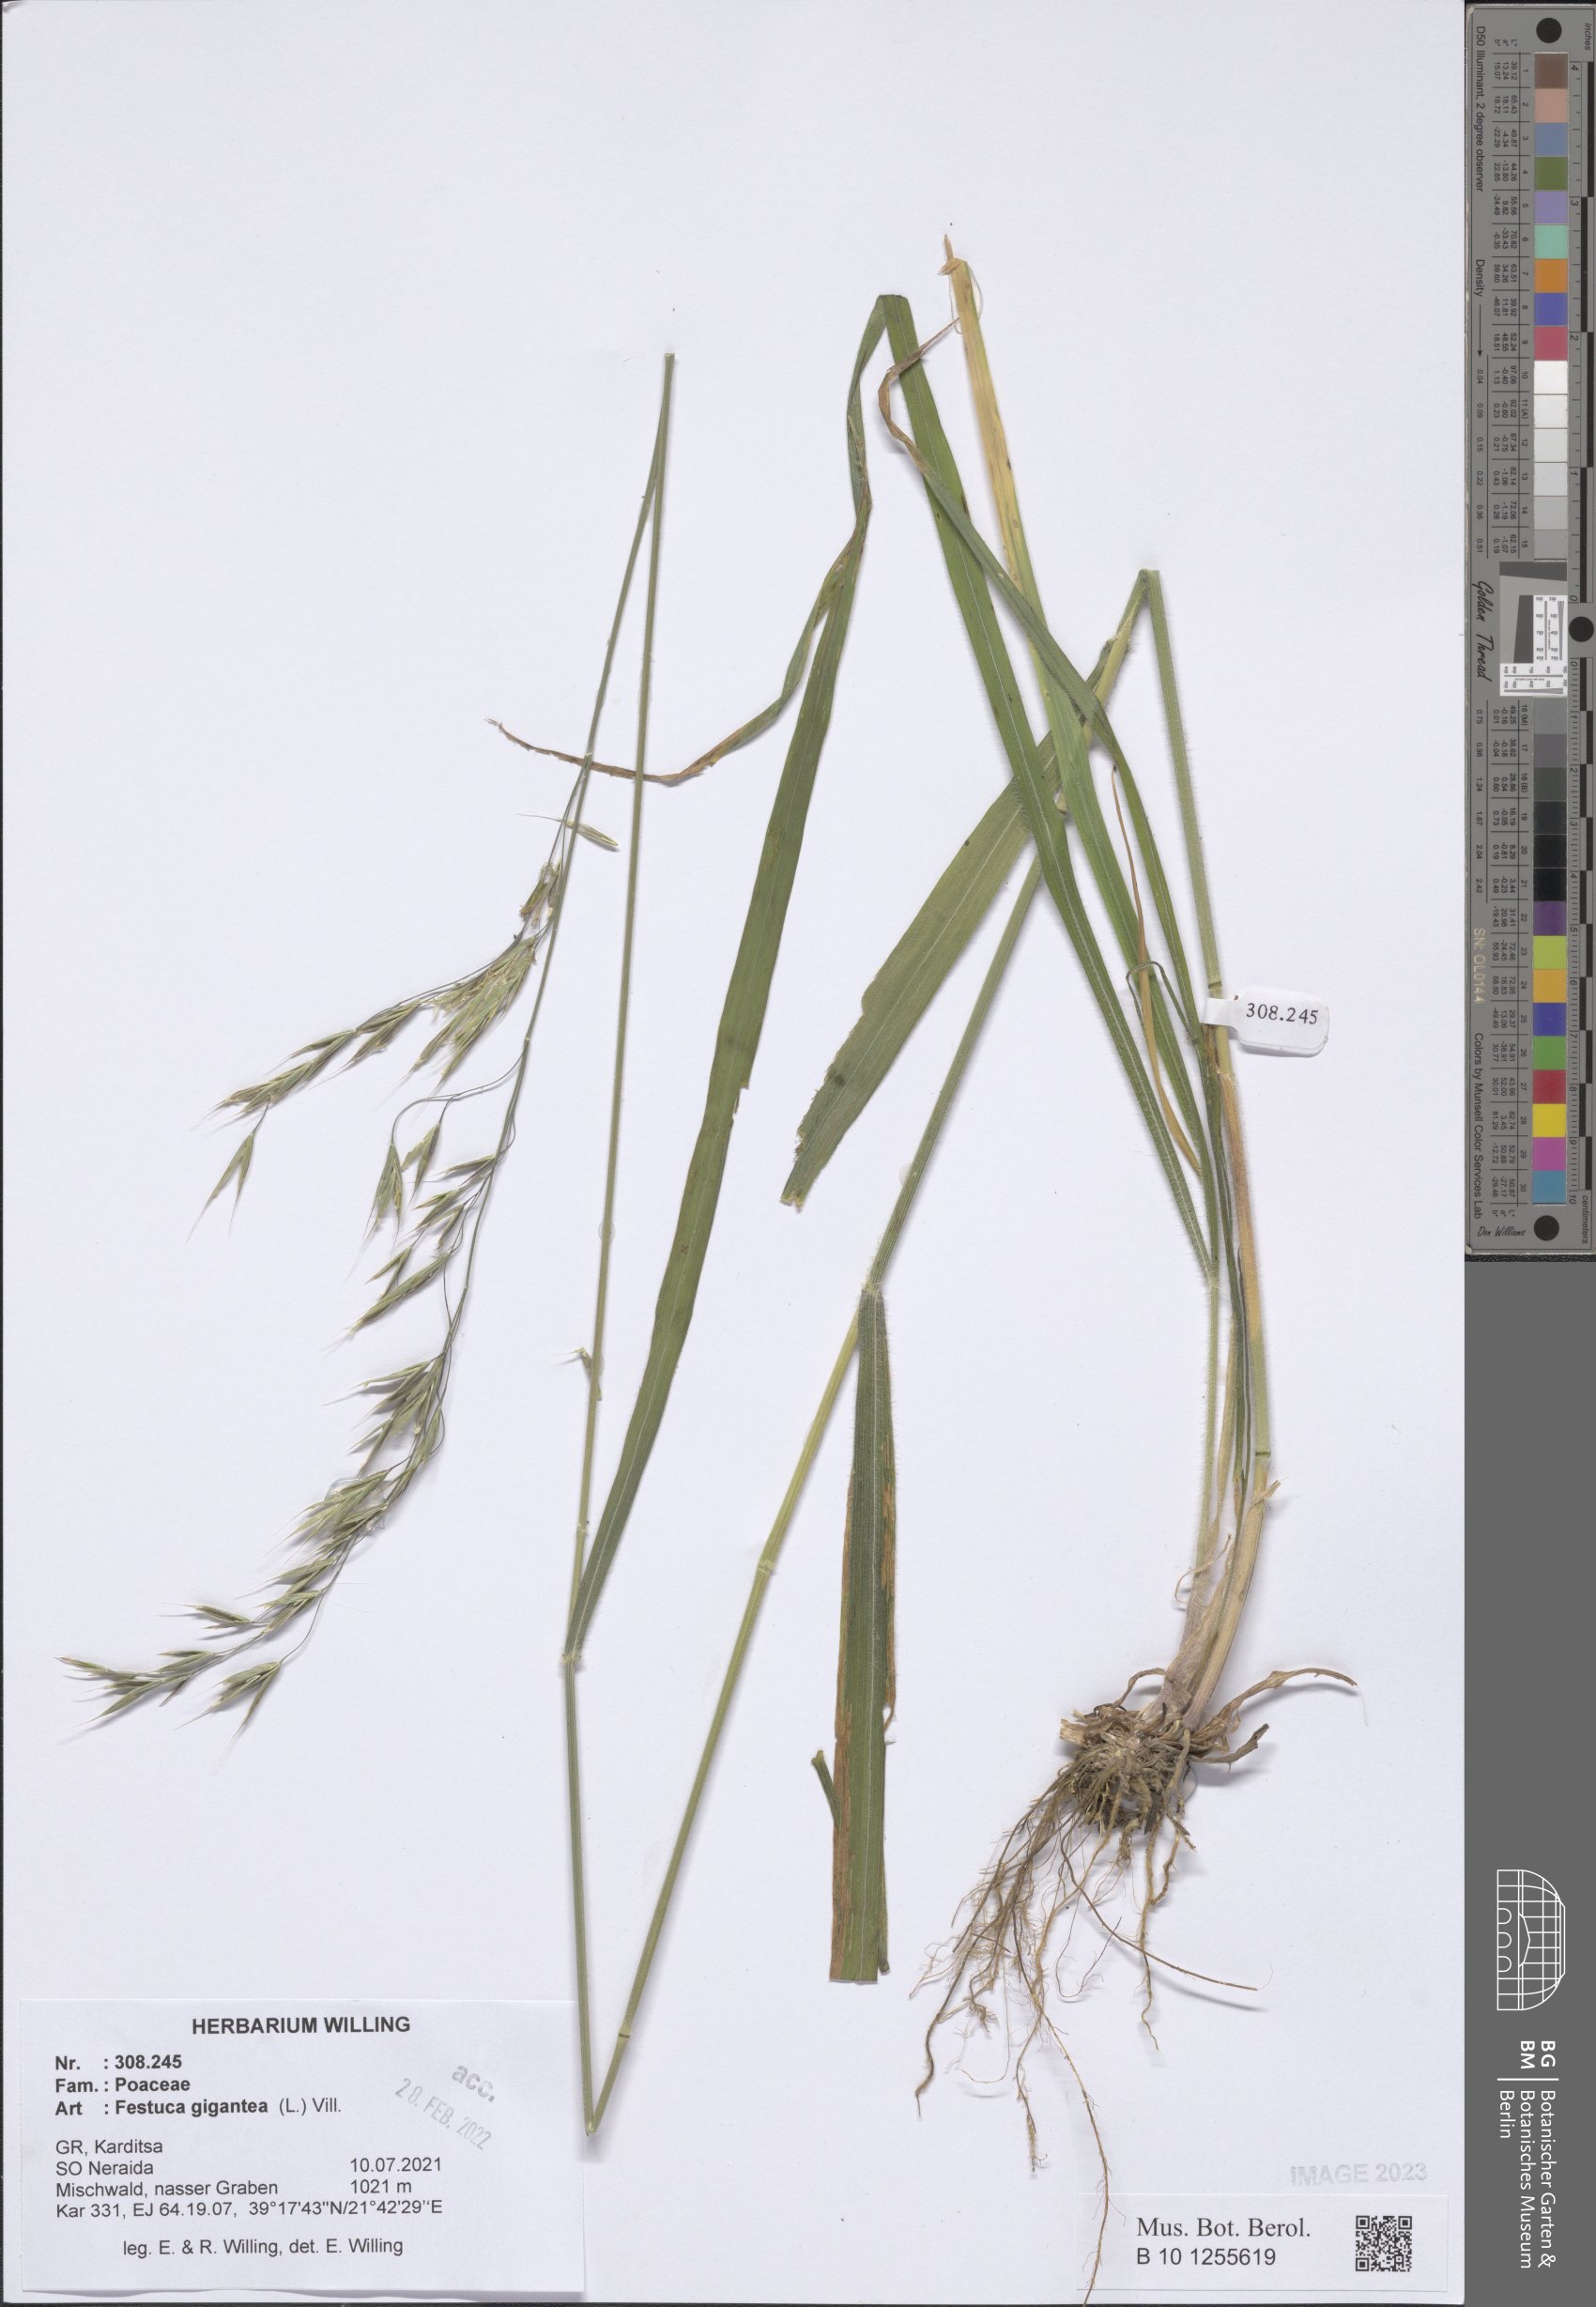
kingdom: Plantae
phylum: Tracheophyta
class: Liliopsida
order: Poales
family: Poaceae
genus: Lolium
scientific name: Lolium giganteum
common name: Giant fescue
